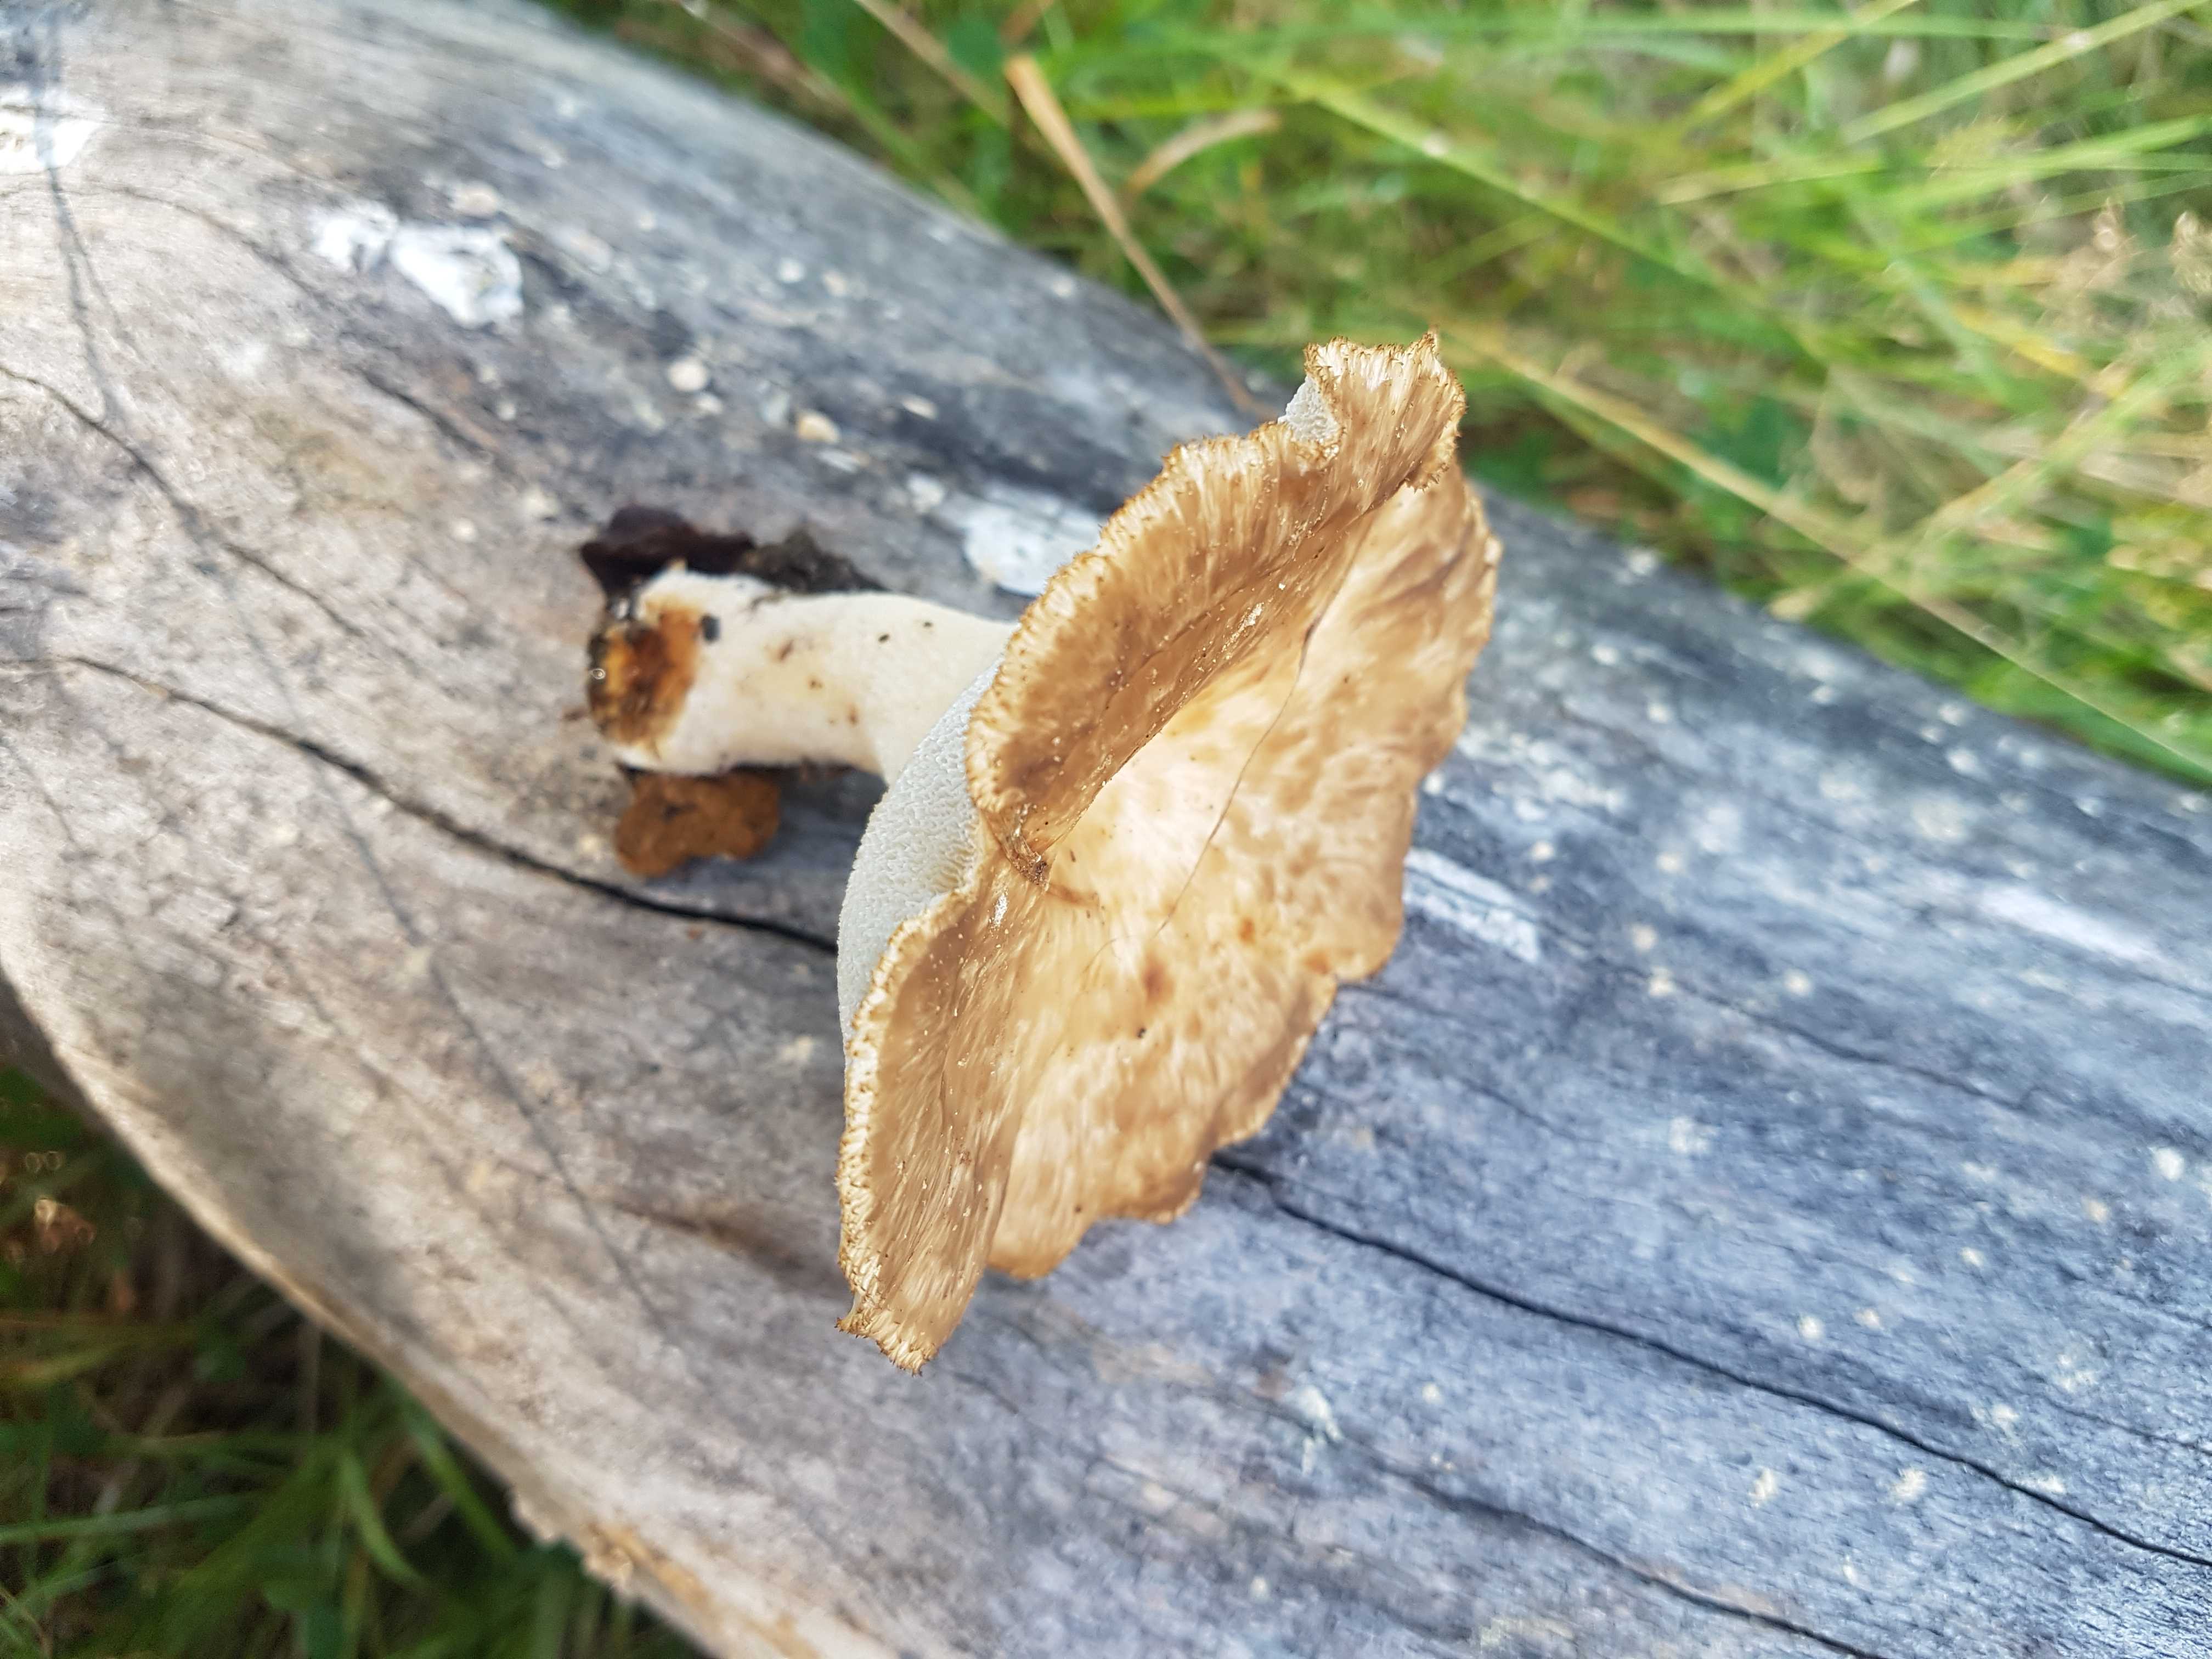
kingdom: Fungi
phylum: Basidiomycota
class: Agaricomycetes
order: Polyporales
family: Polyporaceae
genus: Polyporus
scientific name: Polyporus tuberaster
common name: knoldet stilkporesvamp
